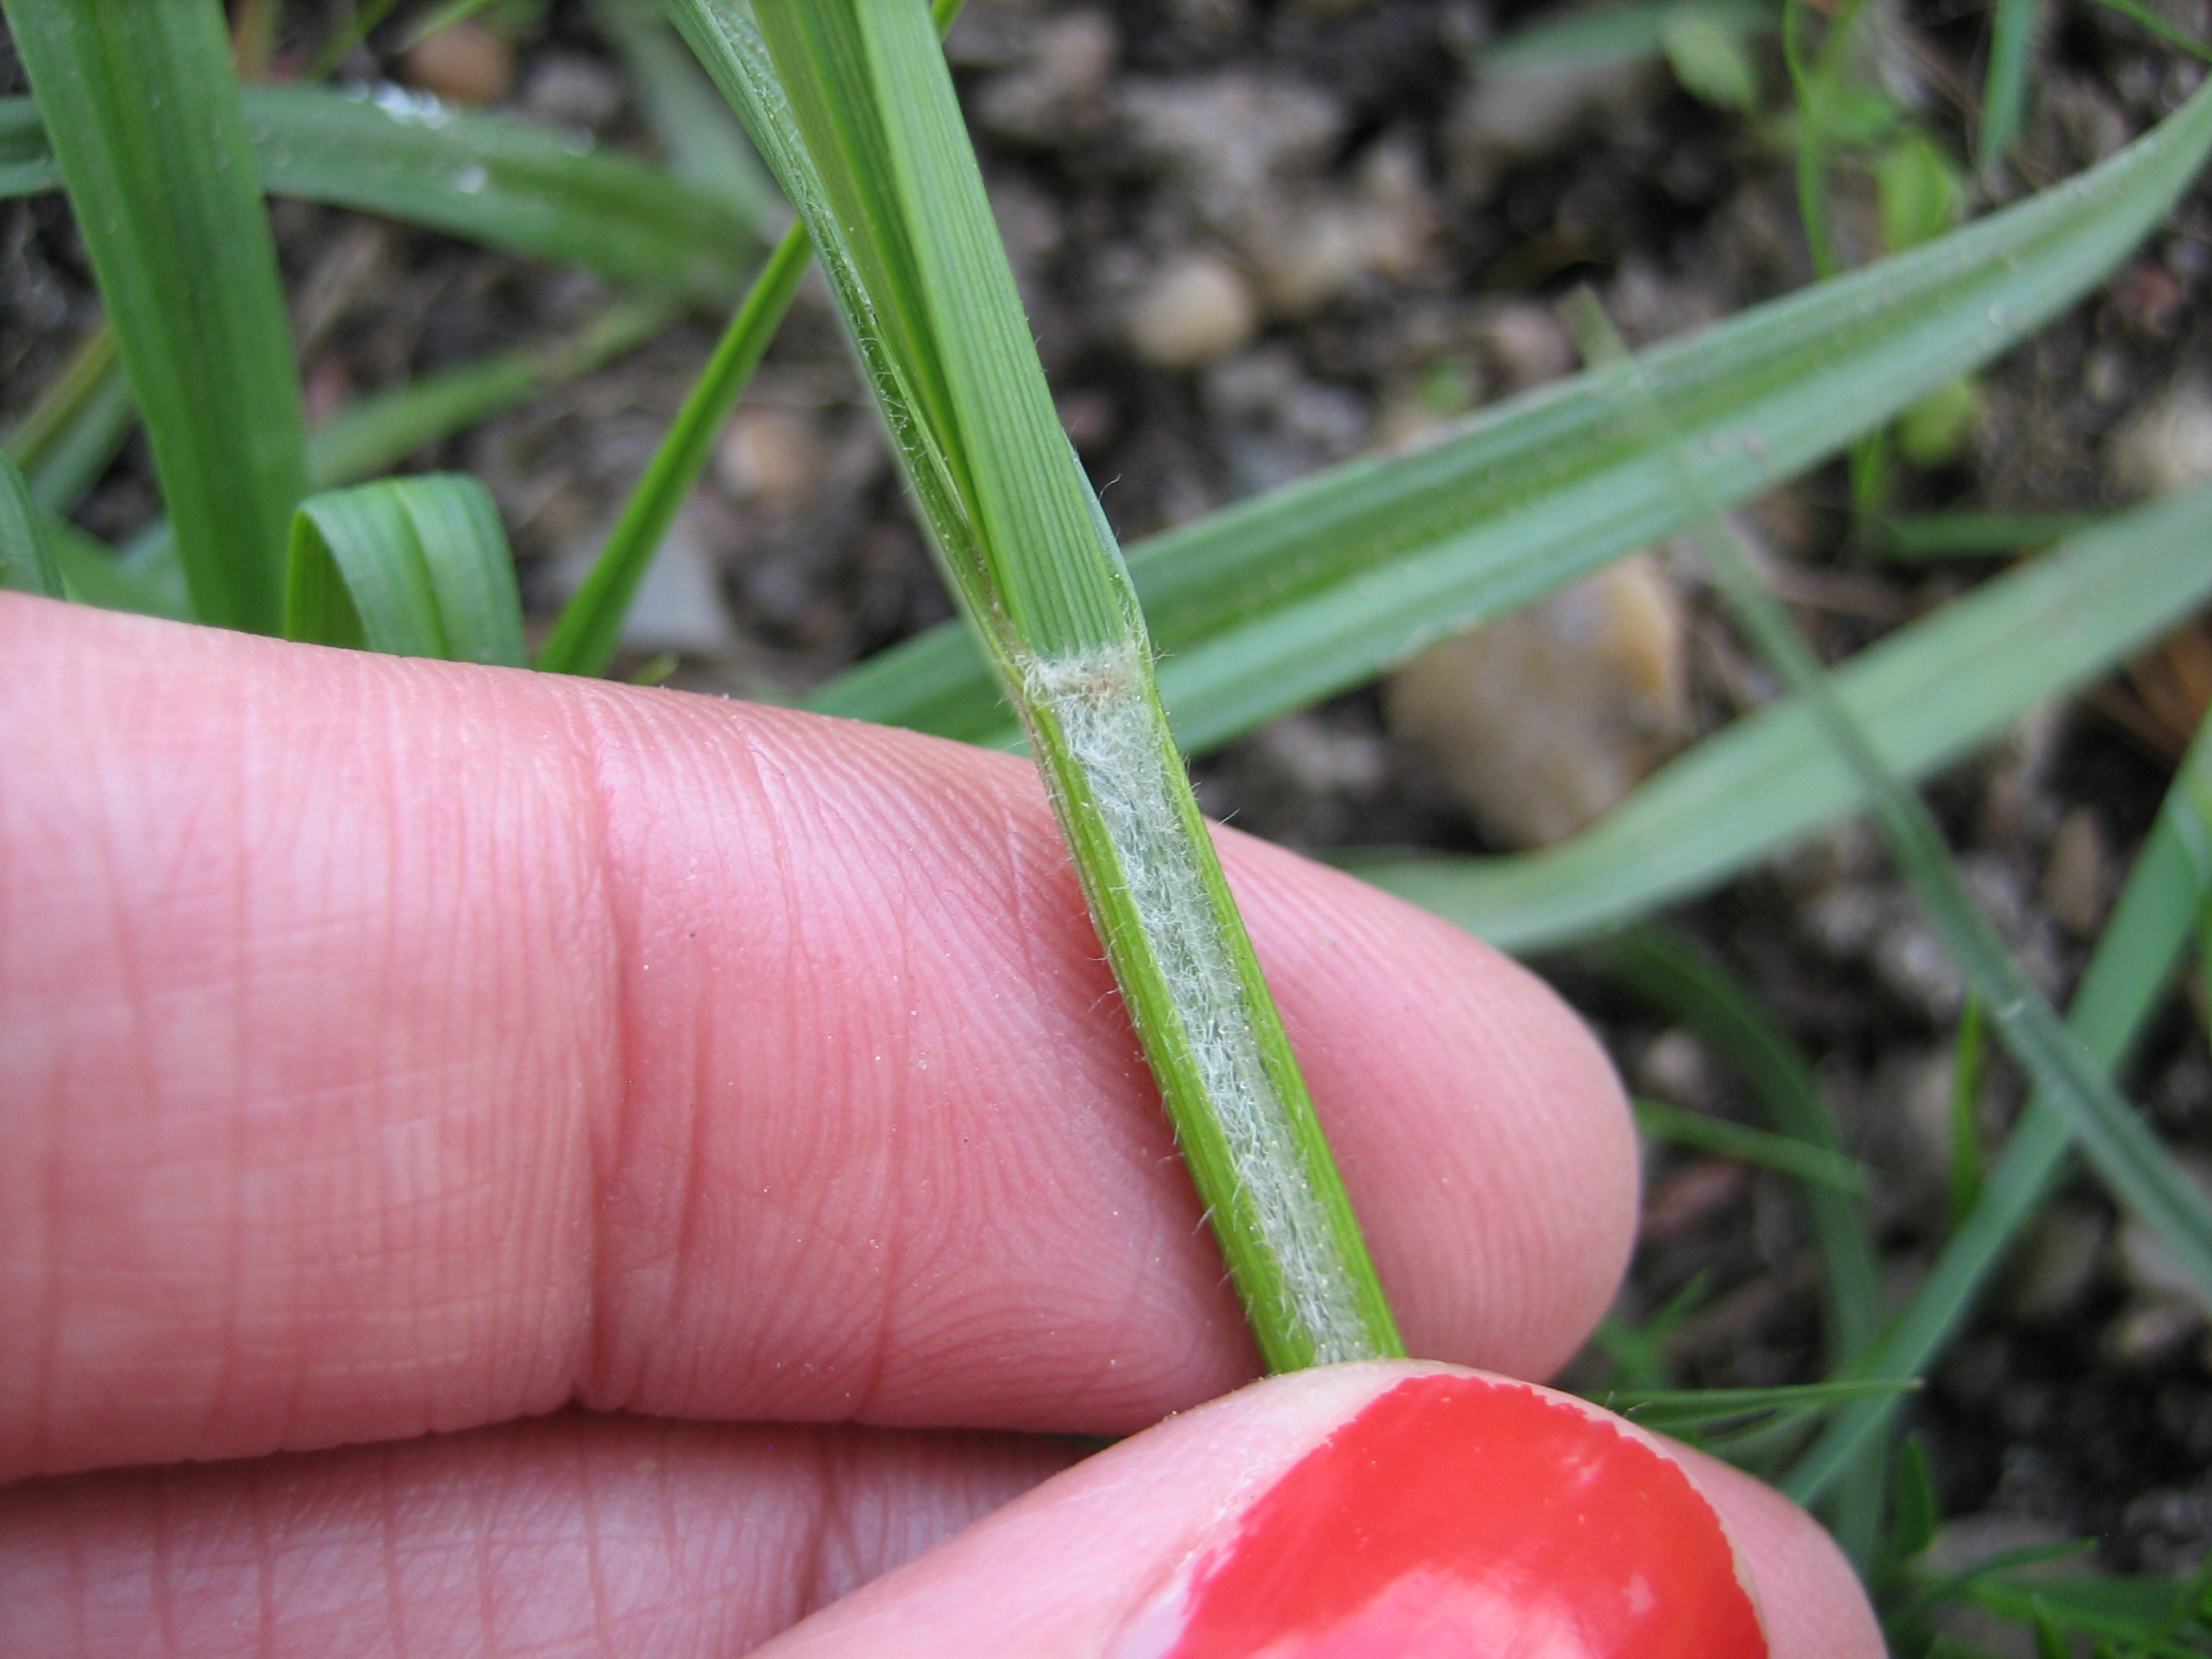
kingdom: Plantae
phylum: Tracheophyta
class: Liliopsida
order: Poales
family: Cyperaceae
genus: Carex
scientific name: Carex hirta
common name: Håret star
